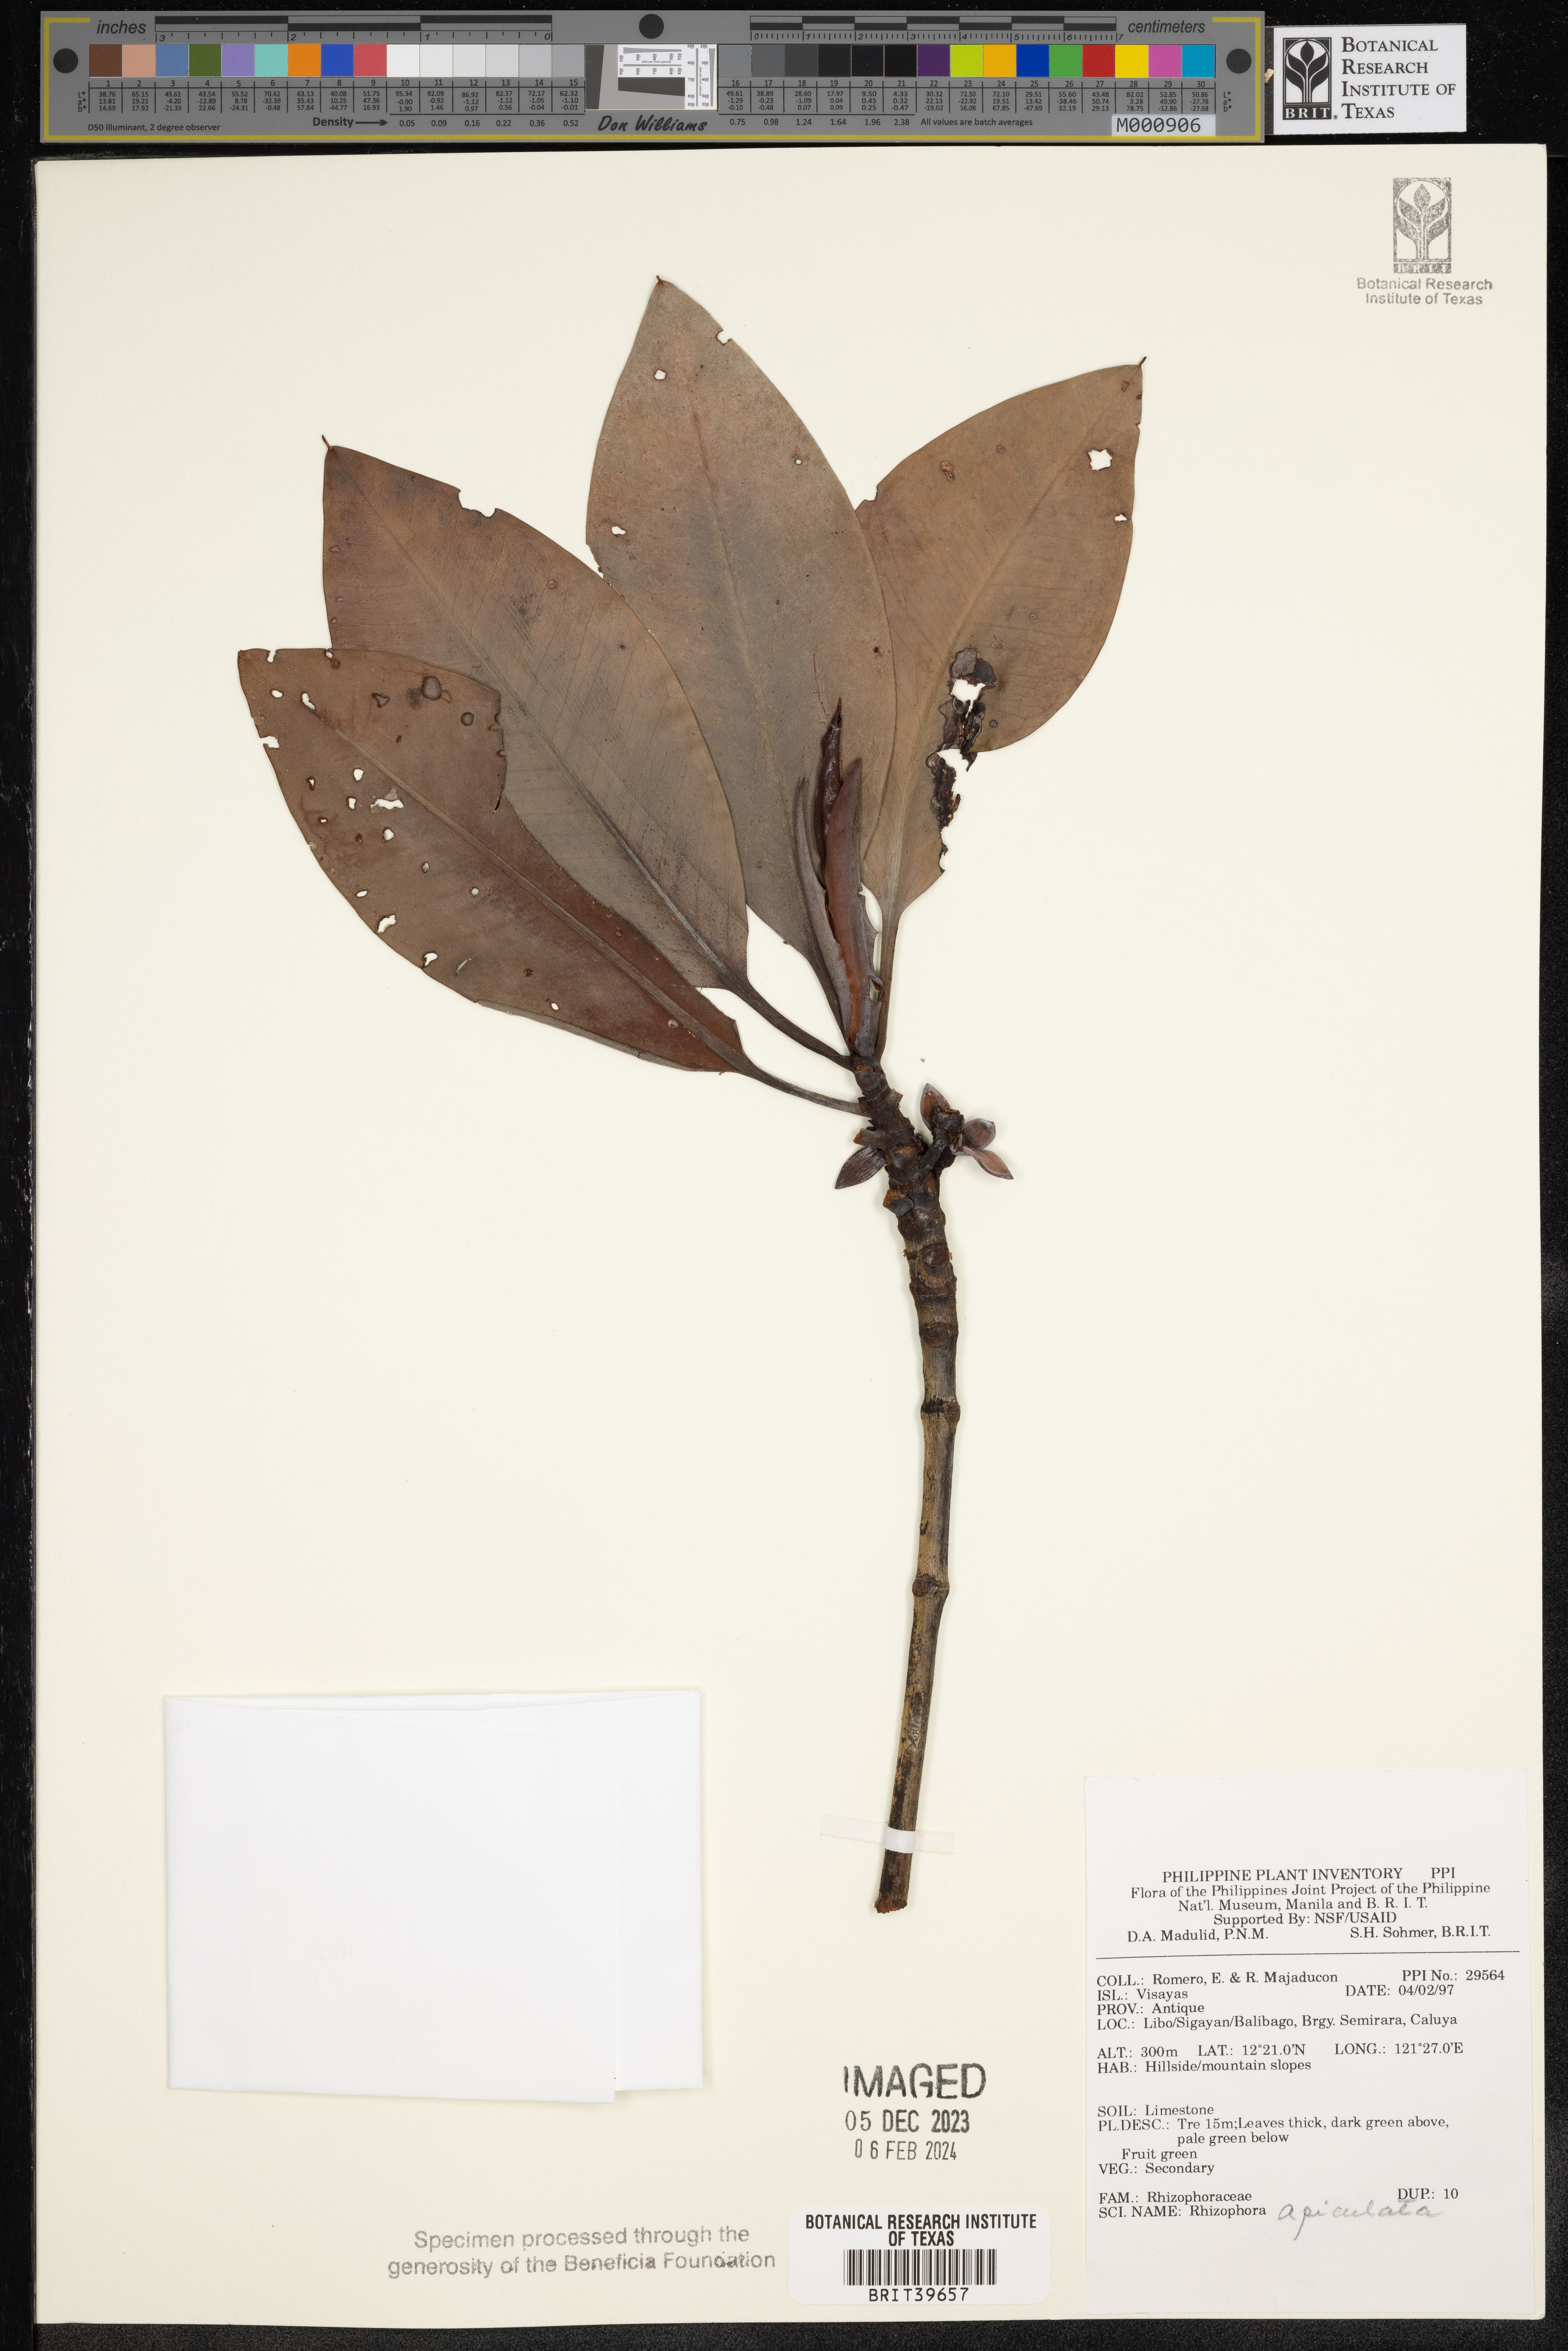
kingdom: Plantae
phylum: Tracheophyta
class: Magnoliopsida
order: Malpighiales
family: Rhizophoraceae
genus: Rhizophora
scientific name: Rhizophora apiculata
